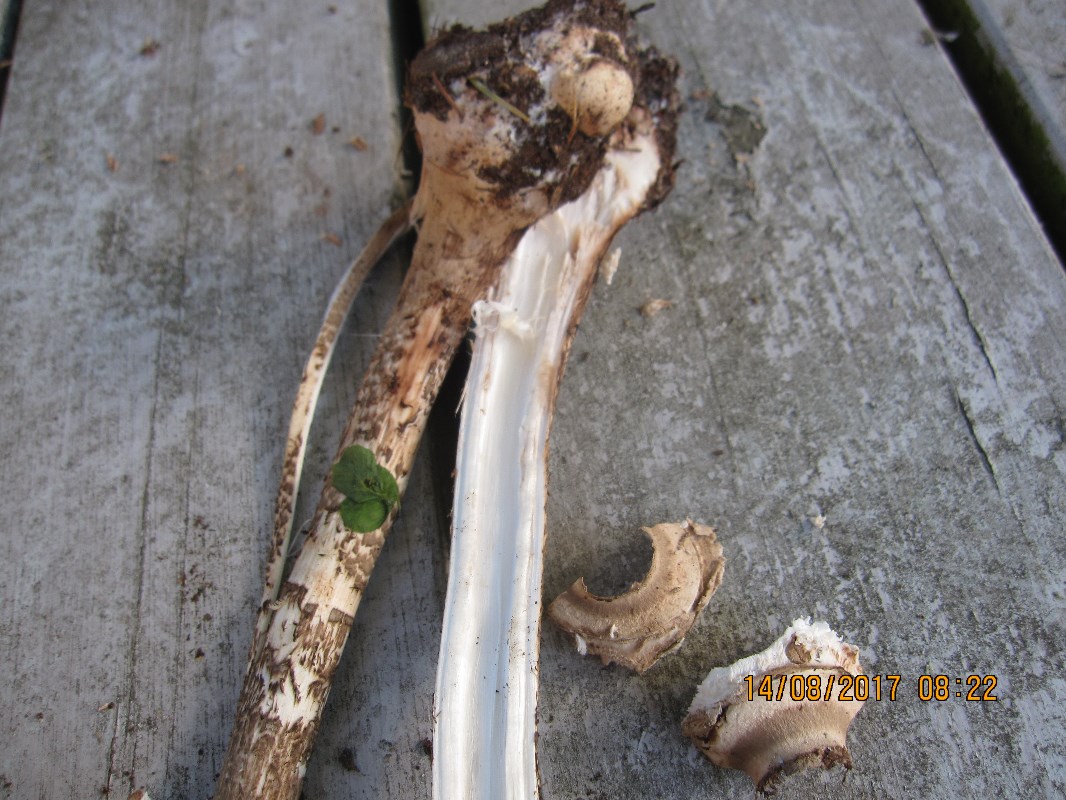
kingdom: Fungi
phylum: Basidiomycota
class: Agaricomycetes
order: Agaricales
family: Agaricaceae
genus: Macrolepiota
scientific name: Macrolepiota fuliginosa
